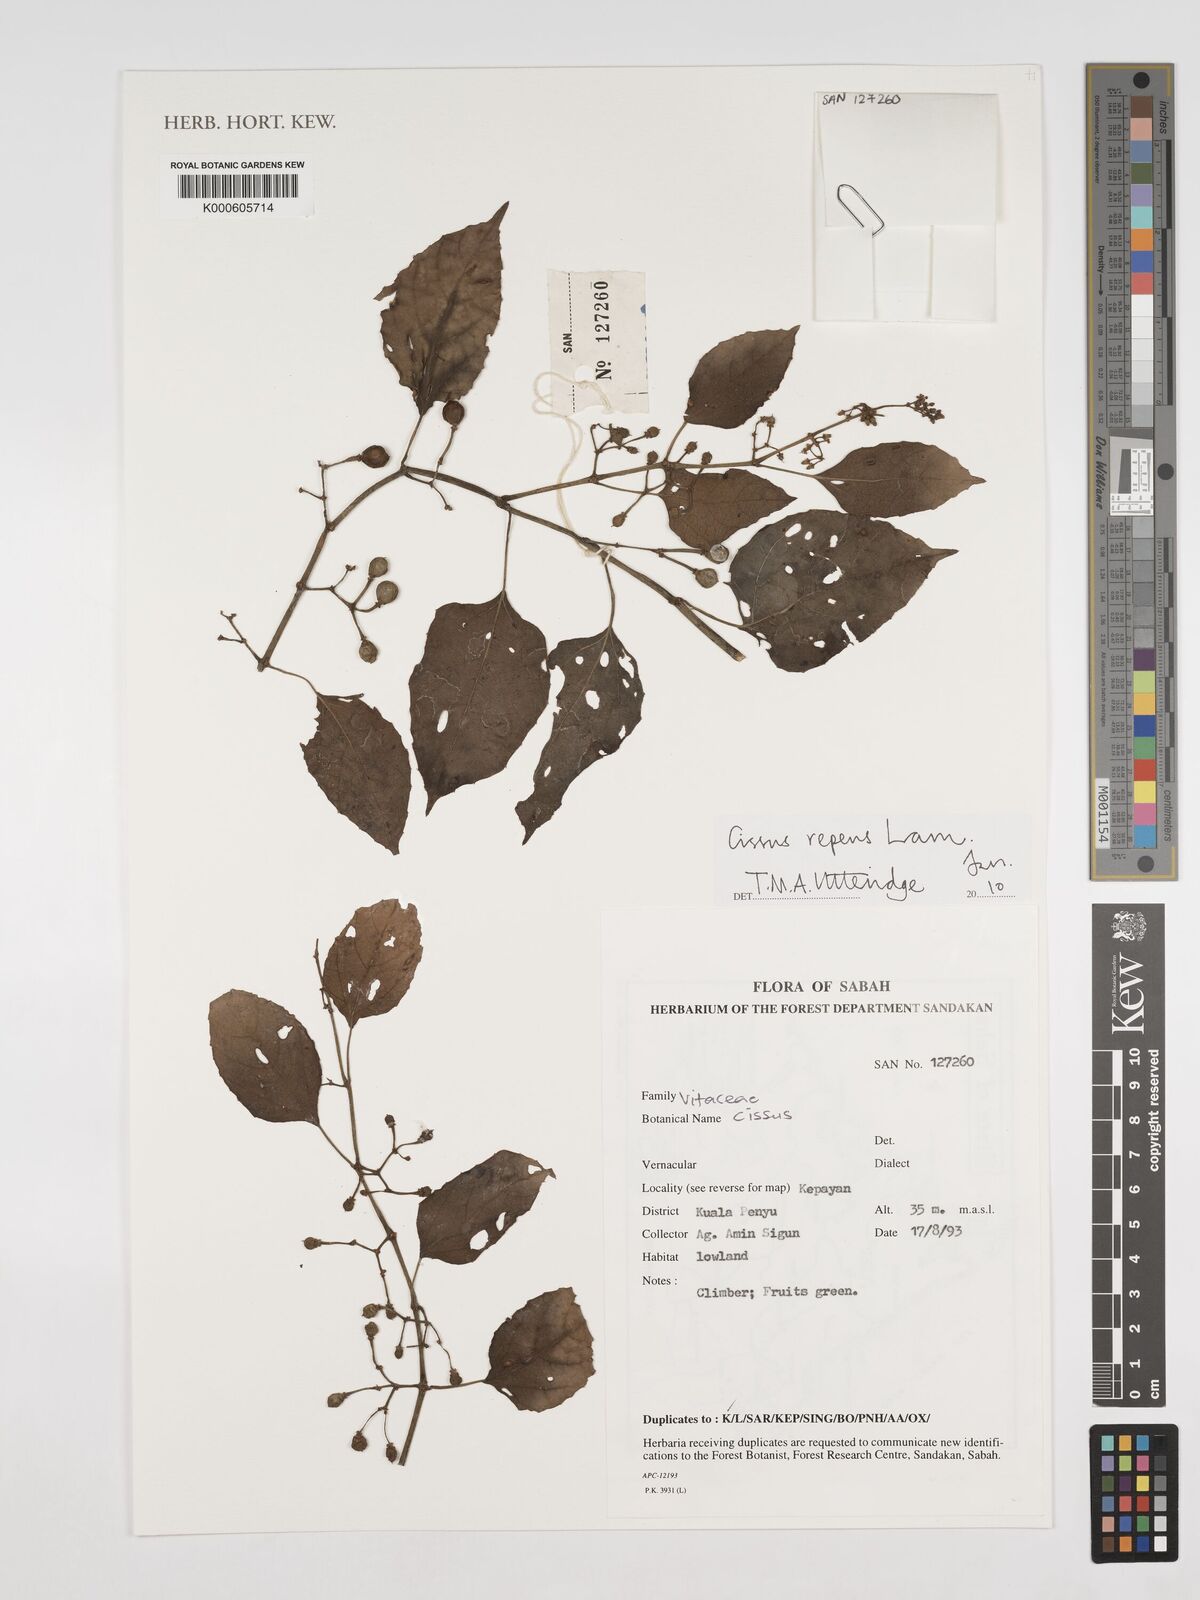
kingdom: Plantae
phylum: Tracheophyta
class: Magnoliopsida
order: Vitales
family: Vitaceae
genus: Cissus
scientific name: Cissus repens
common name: Cissus
